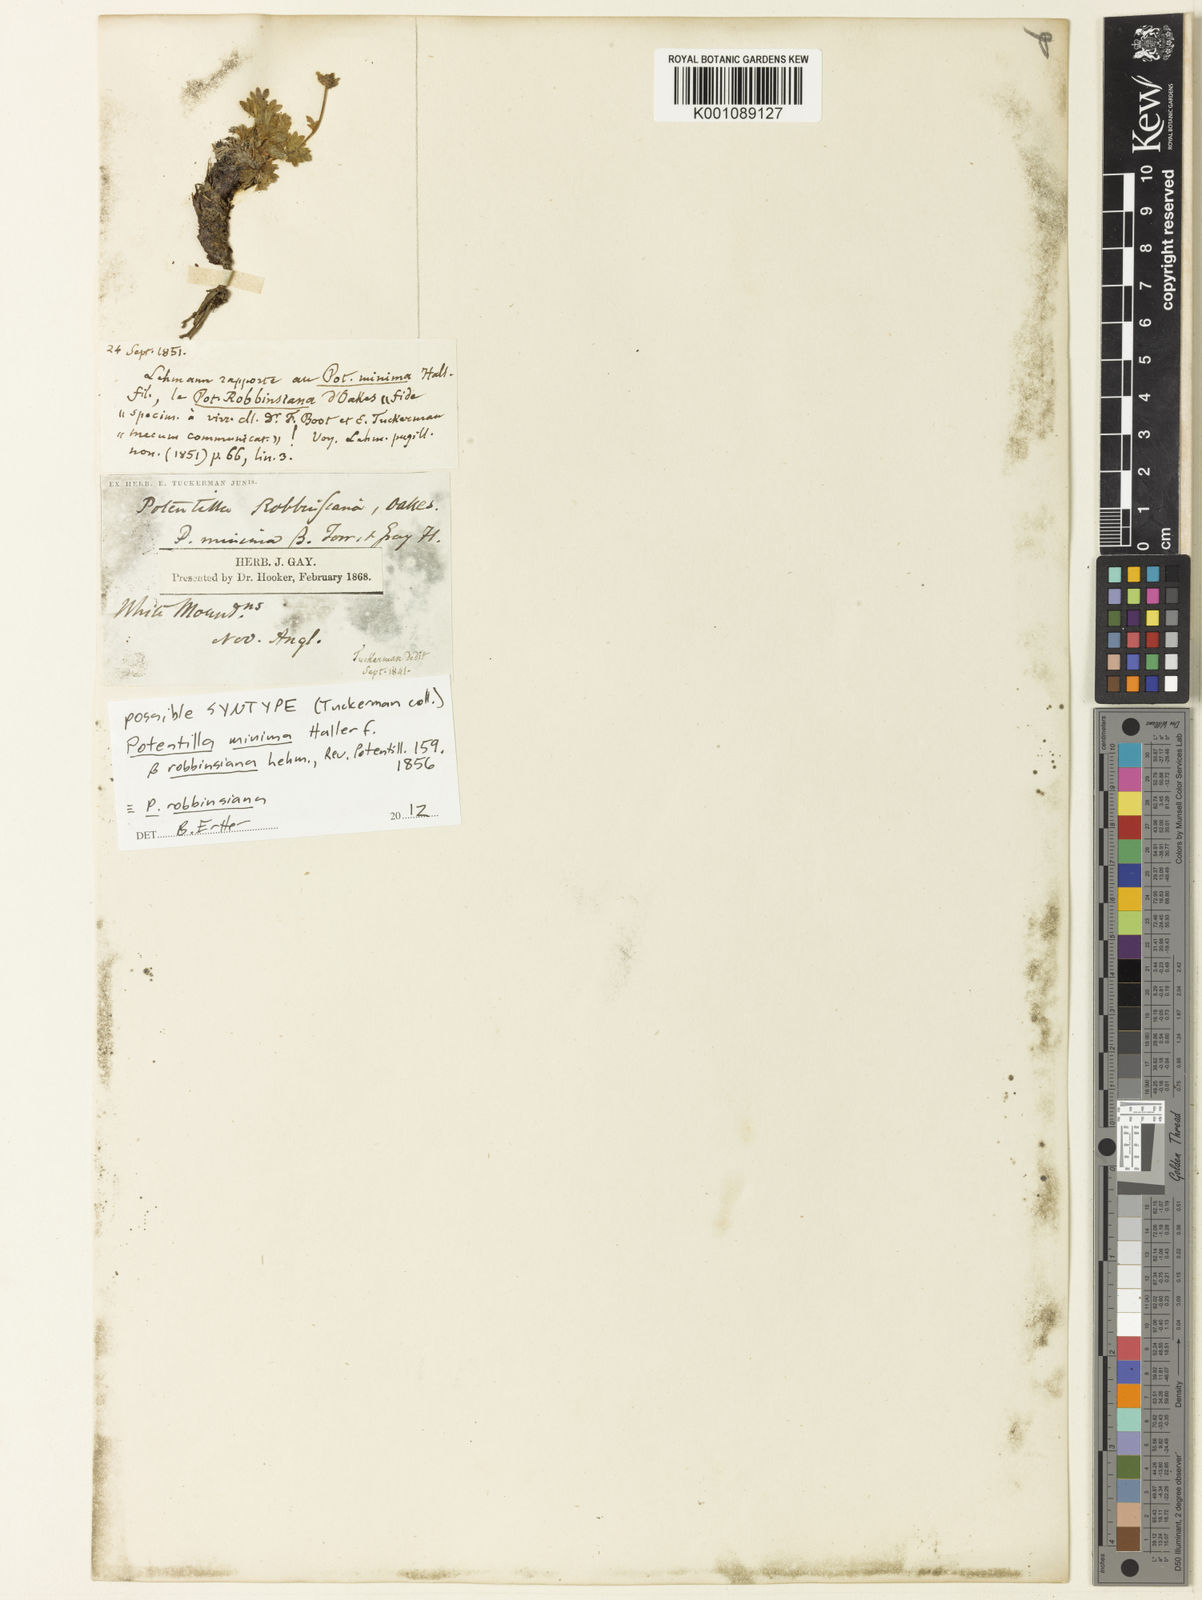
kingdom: Plantae
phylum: Tracheophyta
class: Magnoliopsida
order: Rosales
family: Rosaceae
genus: Potentilla
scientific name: Potentilla
